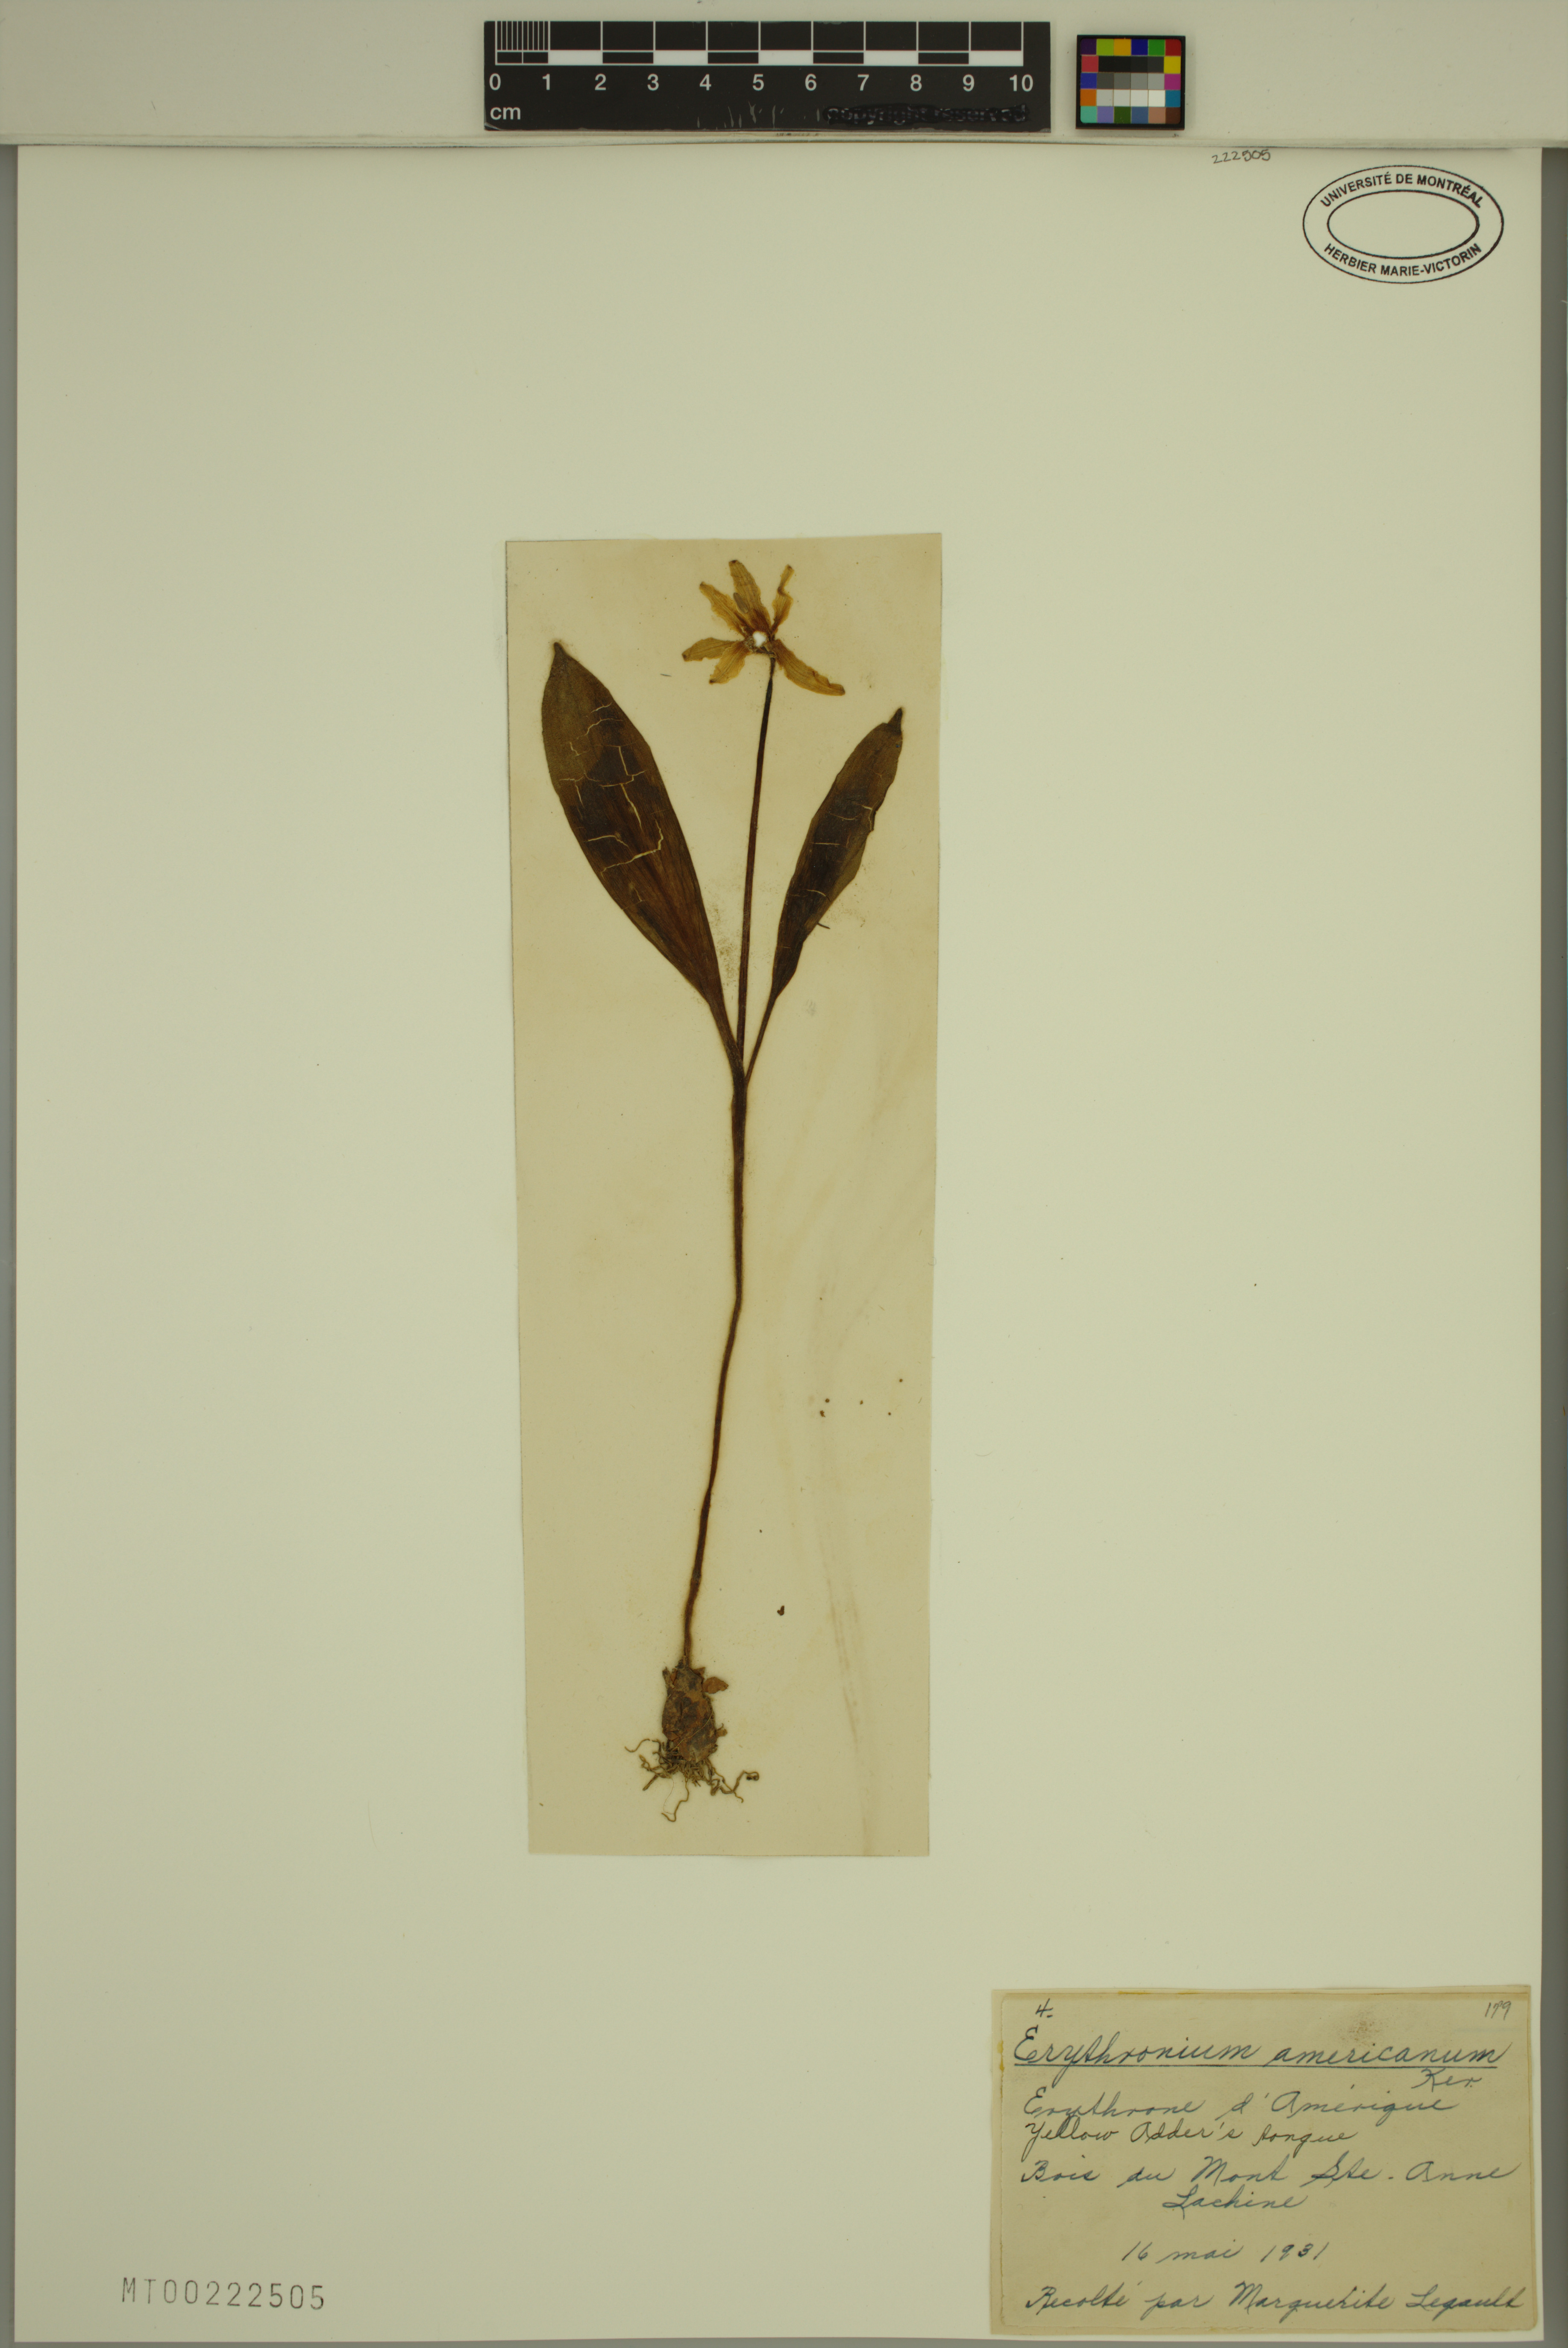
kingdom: Plantae
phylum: Tracheophyta
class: Liliopsida
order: Liliales
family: Liliaceae
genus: Erythronium
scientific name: Erythronium americanum
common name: Yellow adder's-tongue
